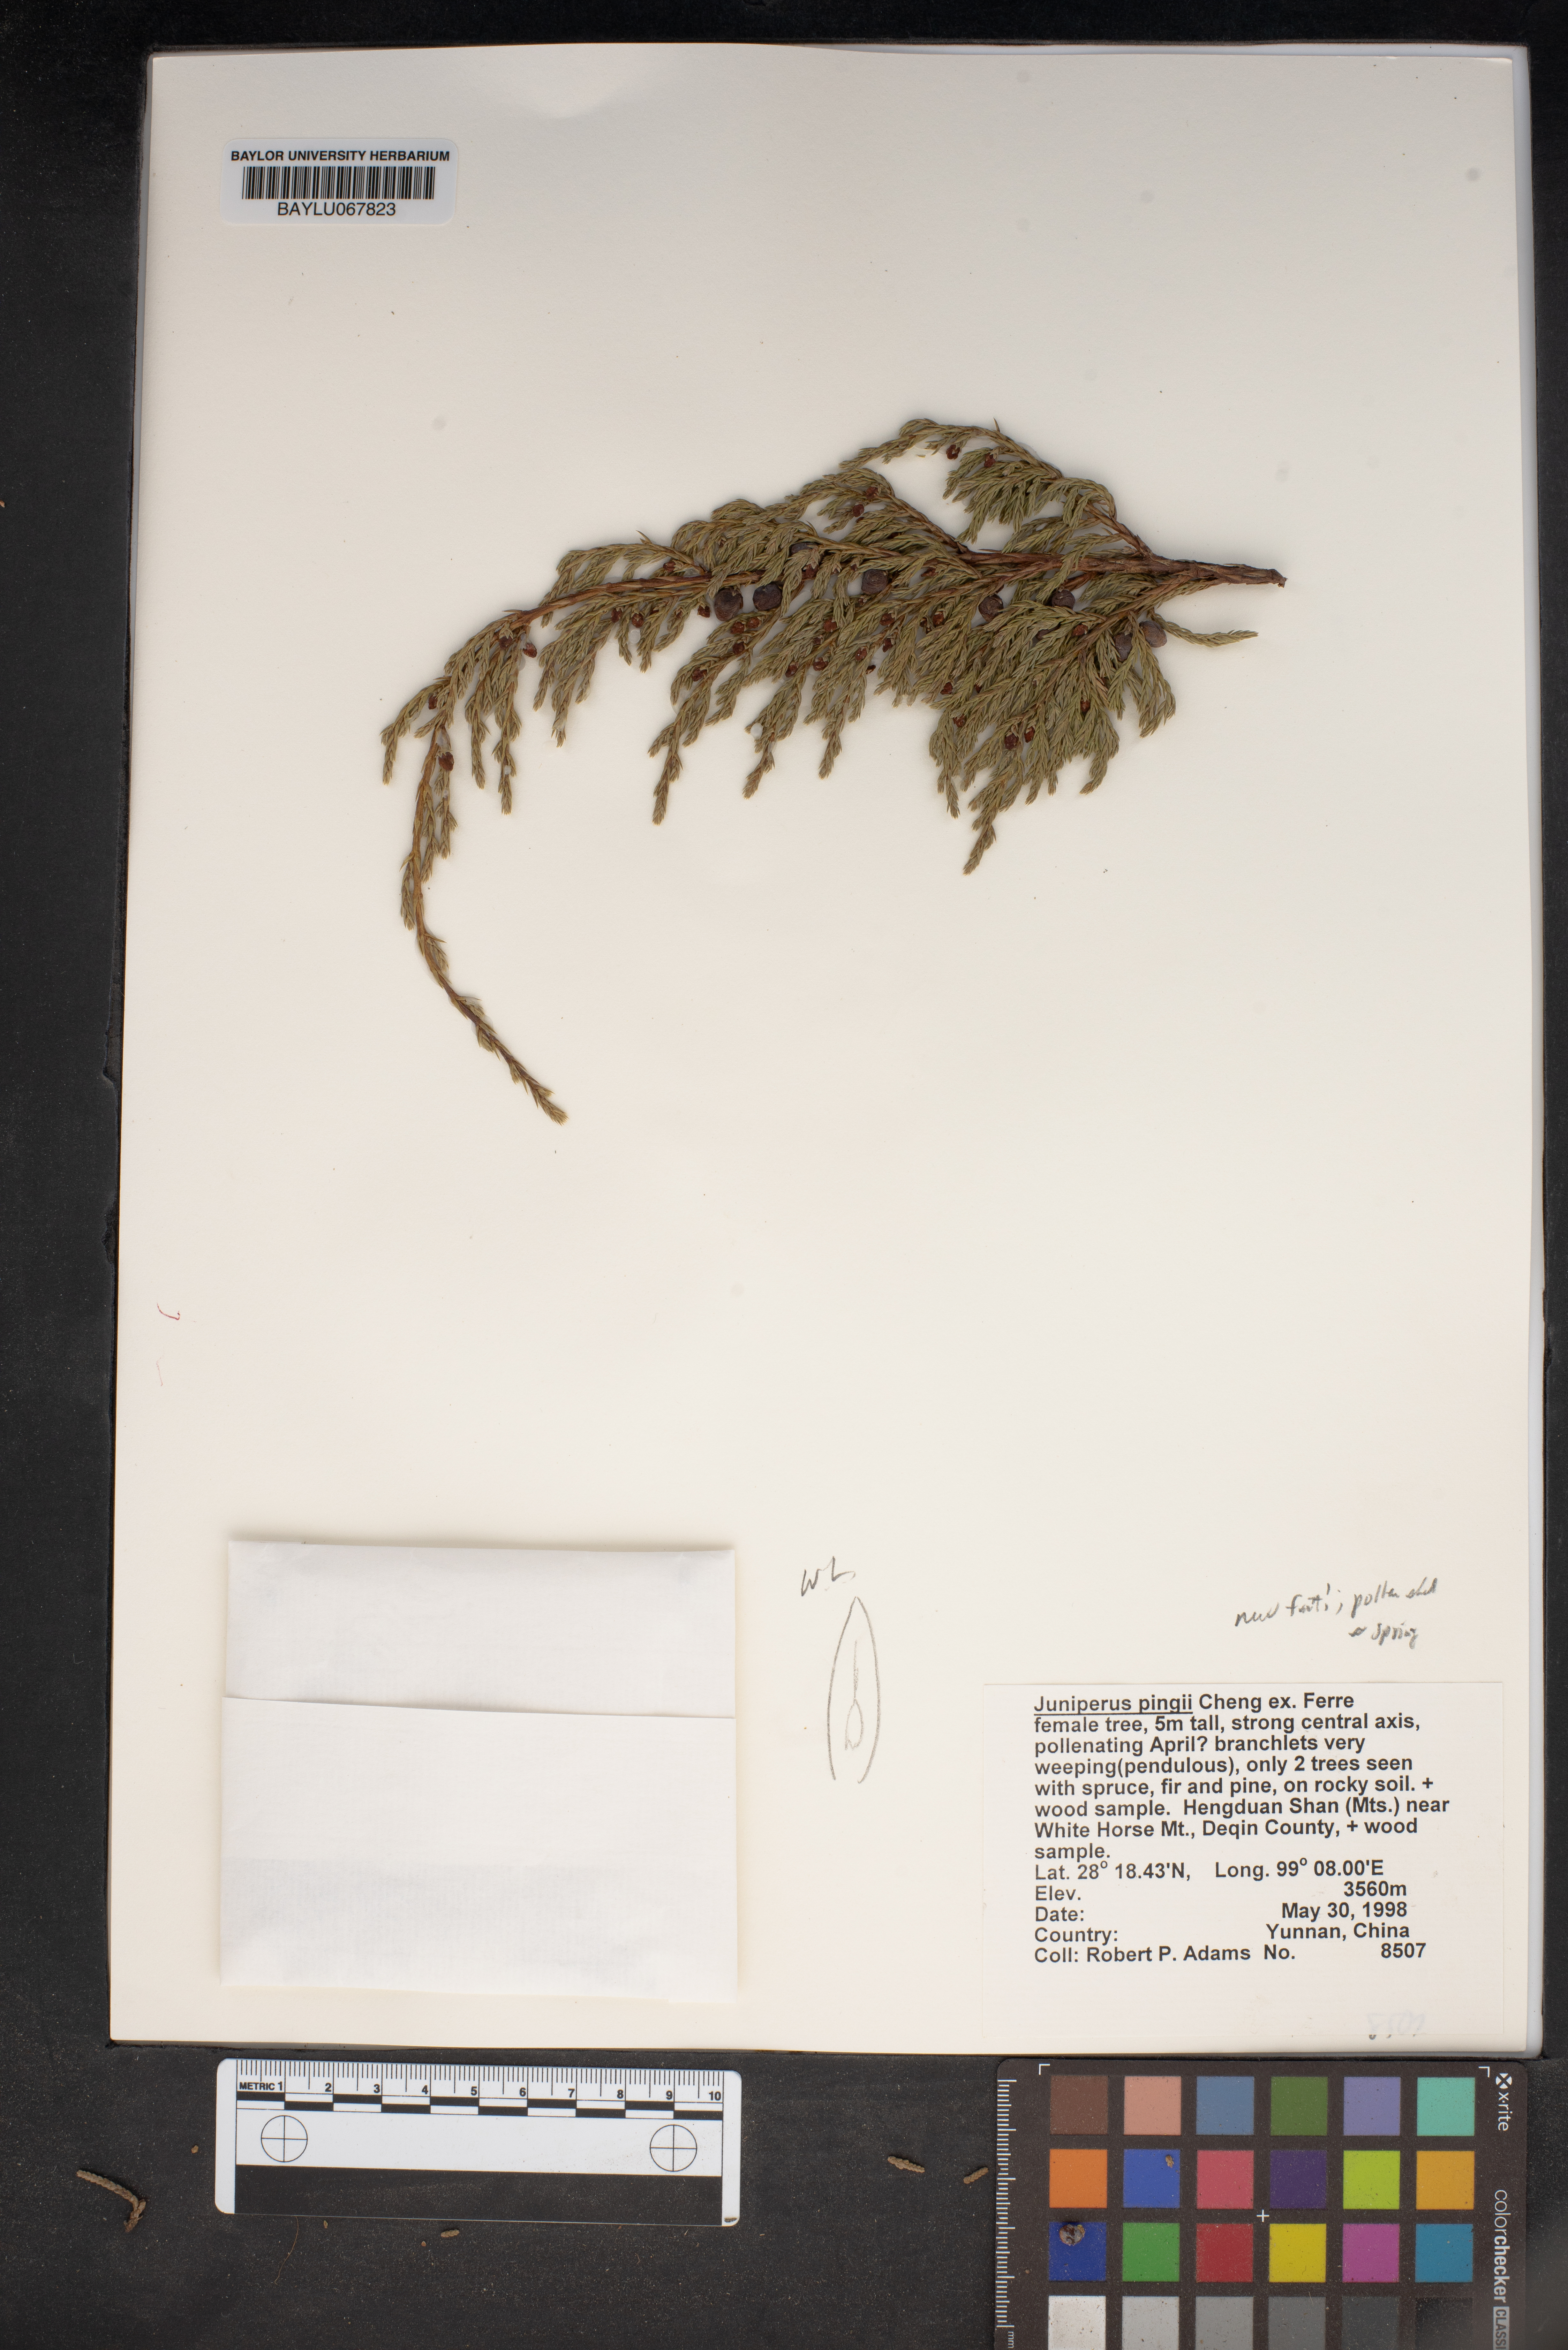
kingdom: Plantae
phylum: Tracheophyta
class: Pinopsida
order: Pinales
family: Cupressaceae
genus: Juniperus
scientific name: Juniperus pingii
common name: Ping's juniper
